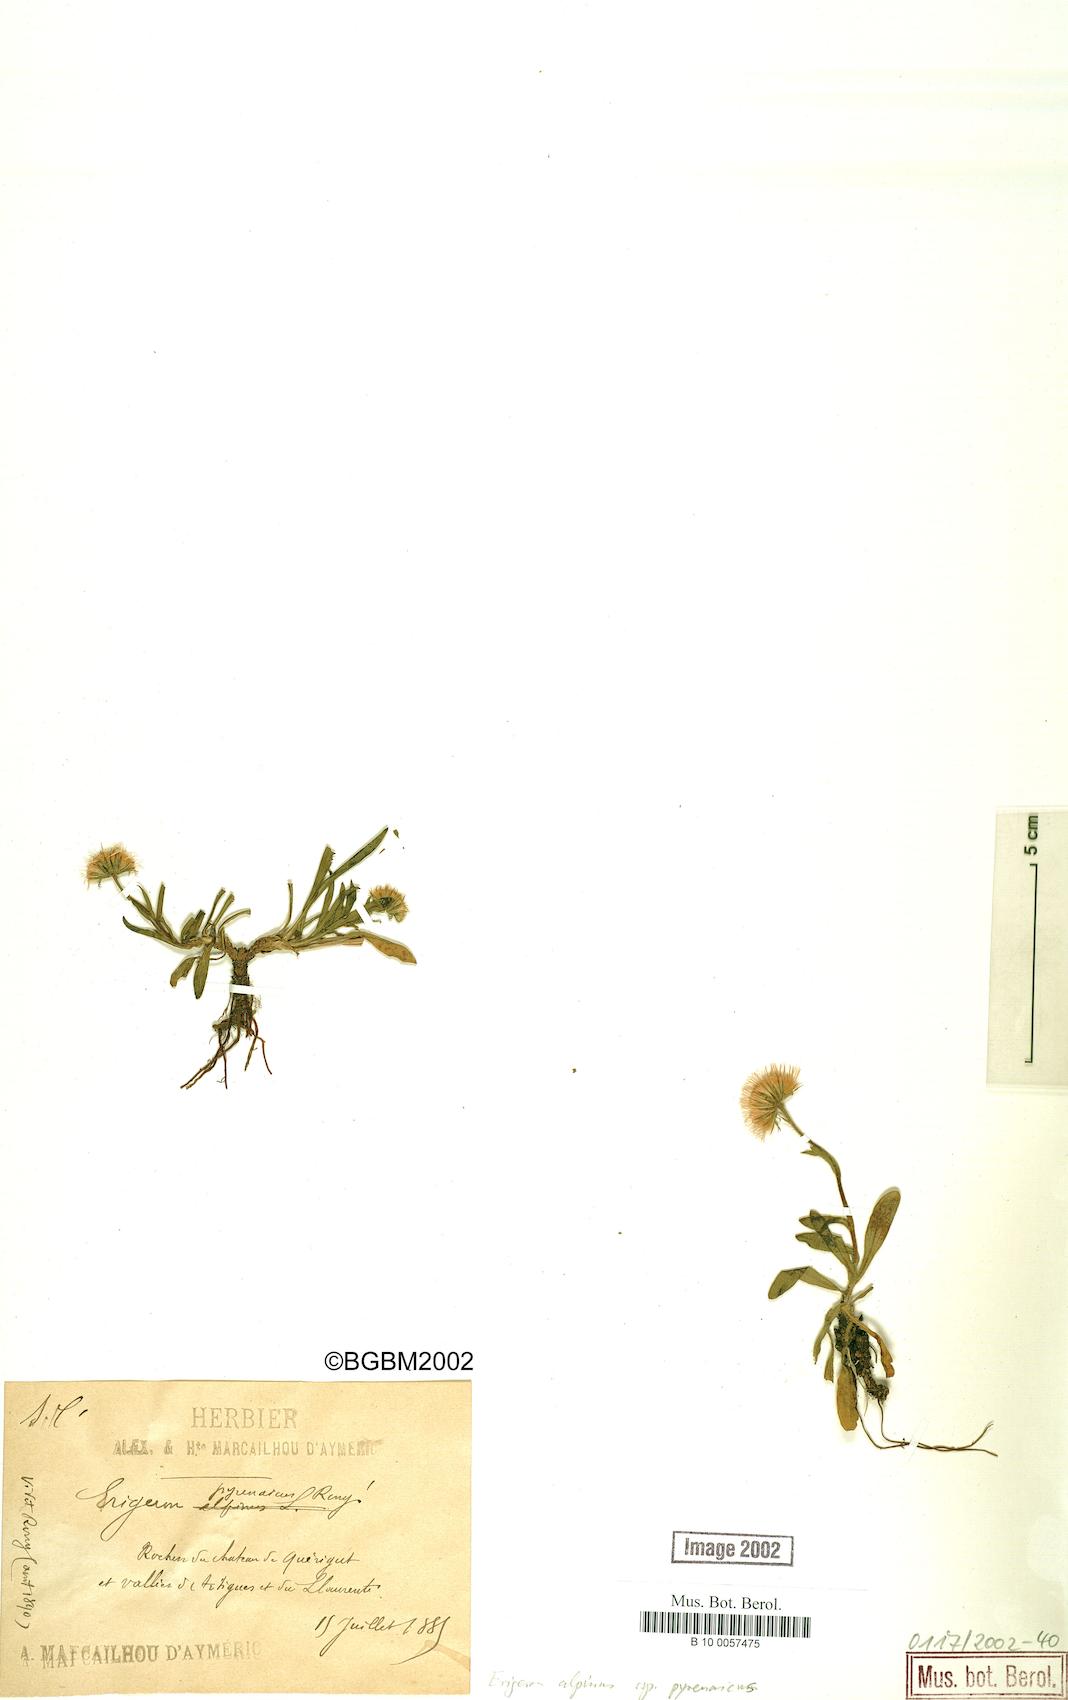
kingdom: Plantae
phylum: Tracheophyta
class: Magnoliopsida
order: Asterales
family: Asteraceae
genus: Erigeron
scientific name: Erigeron uniflorus
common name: Northern daisy
